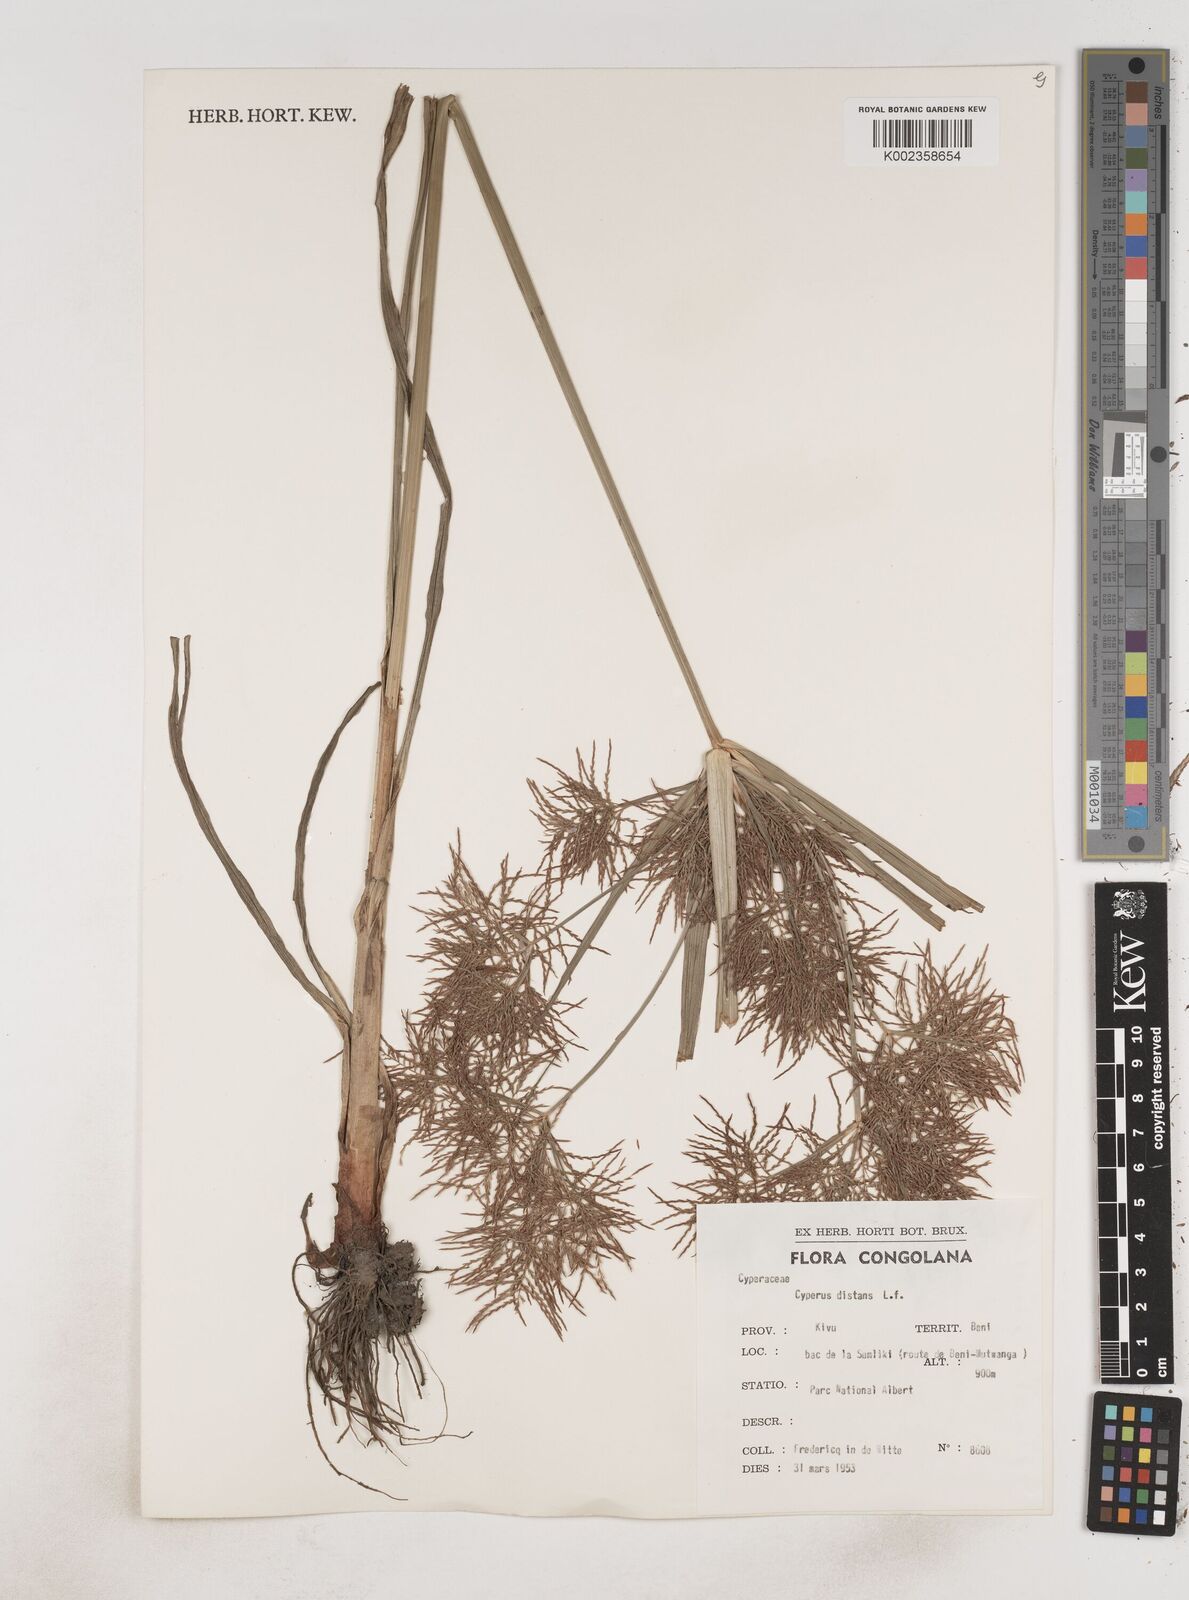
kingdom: Plantae
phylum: Tracheophyta
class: Liliopsida
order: Poales
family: Cyperaceae
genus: Cyperus
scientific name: Cyperus distans
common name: Slender cyperus
